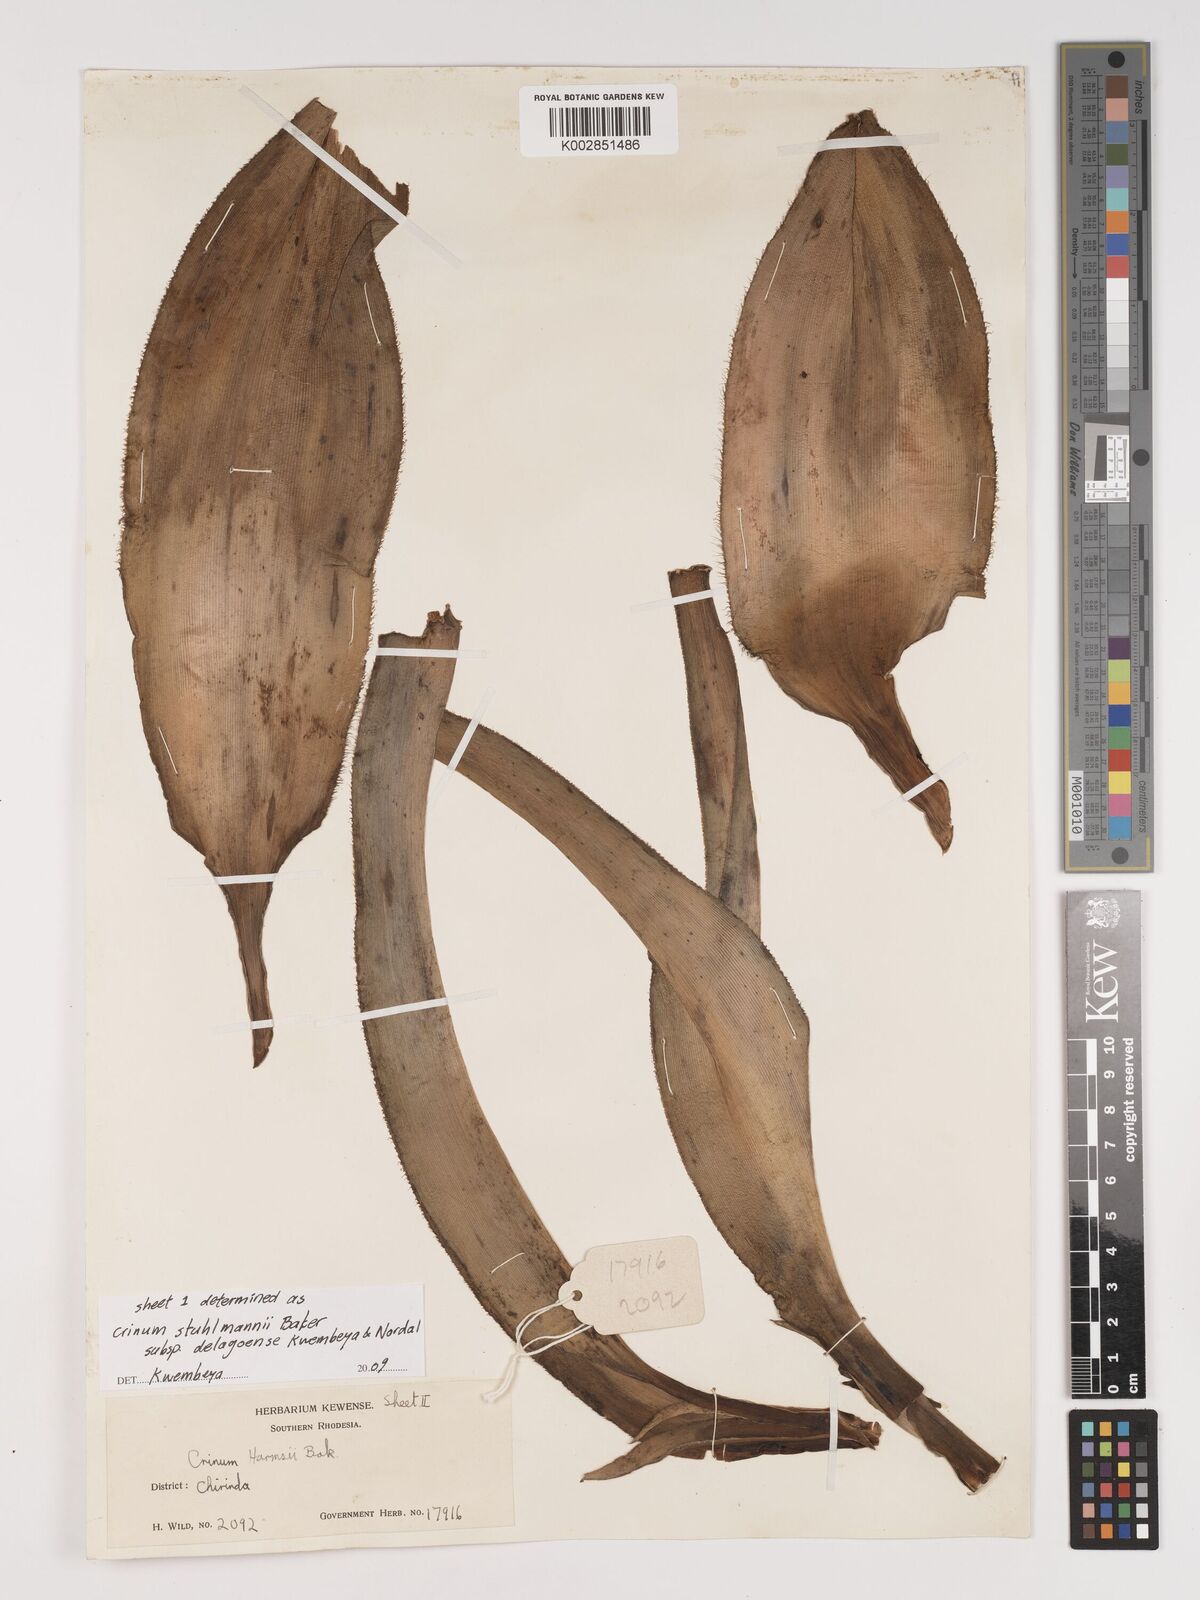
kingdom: Plantae
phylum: Tracheophyta
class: Liliopsida
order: Asparagales
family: Amaryllidaceae
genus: Crinum
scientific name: Crinum stuhlmannii
